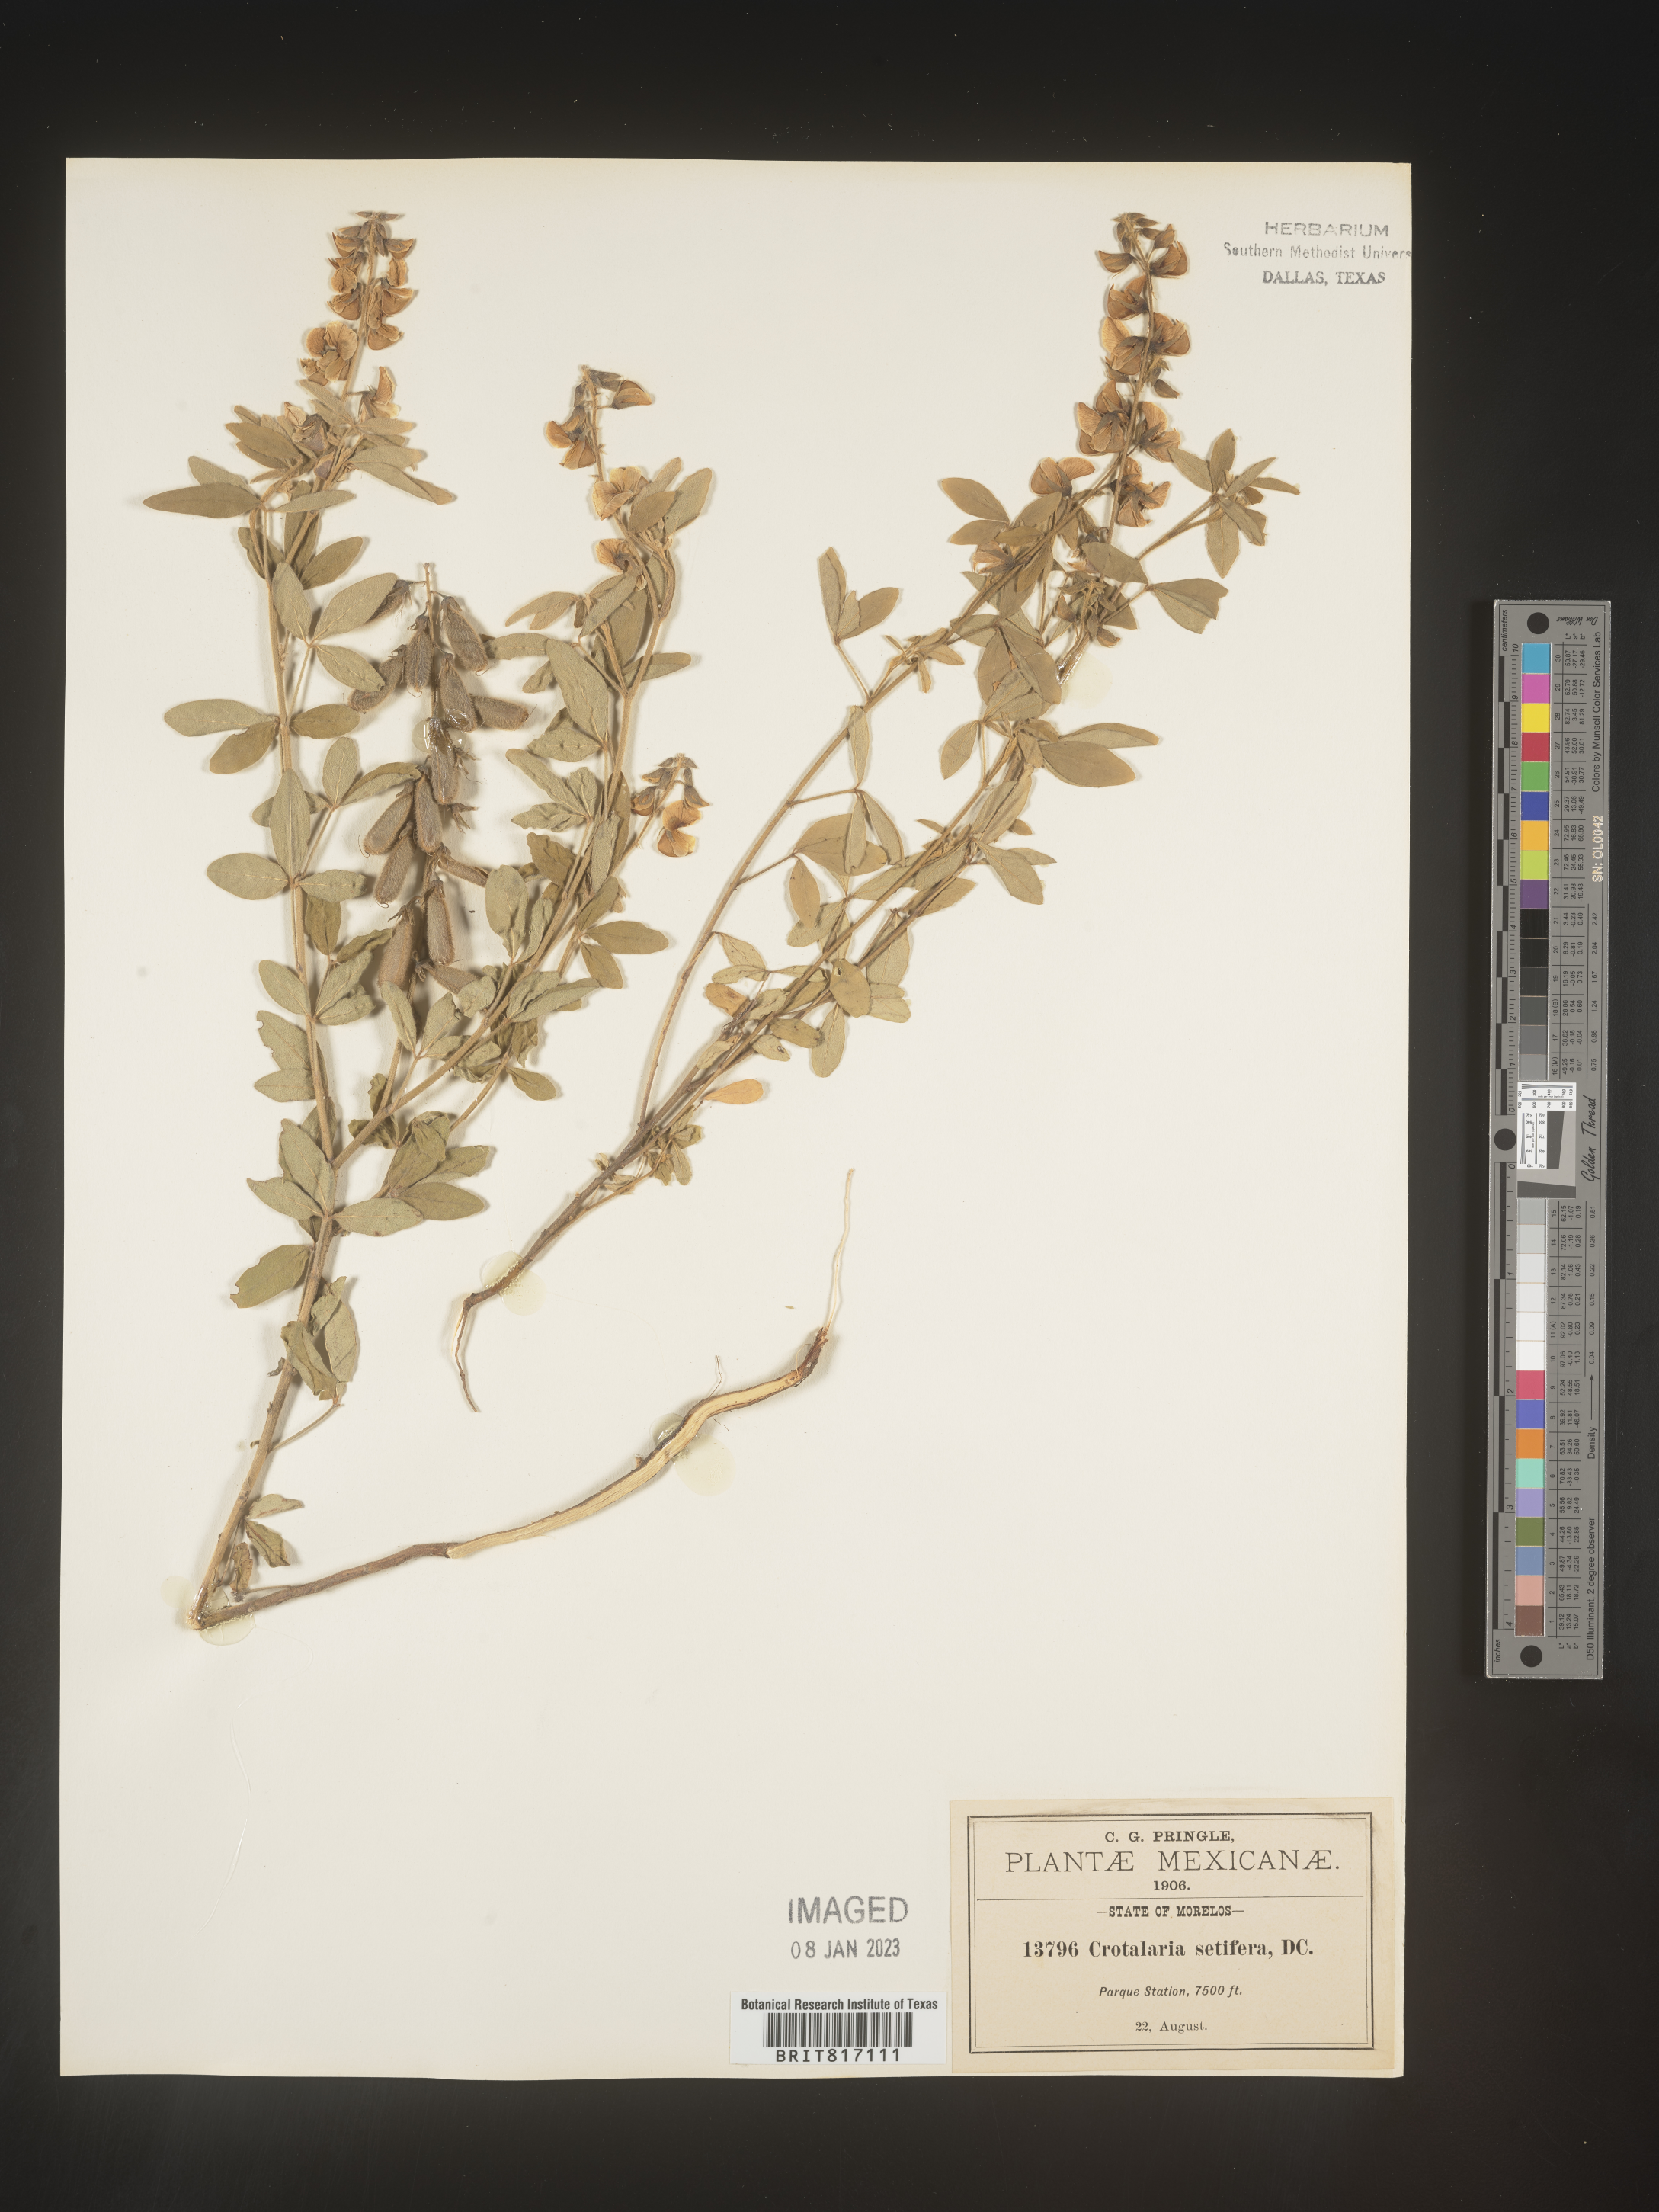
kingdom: Plantae
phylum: Tracheophyta
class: Magnoliopsida
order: Fabales
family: Fabaceae
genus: Crotalaria
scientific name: Crotalaria
